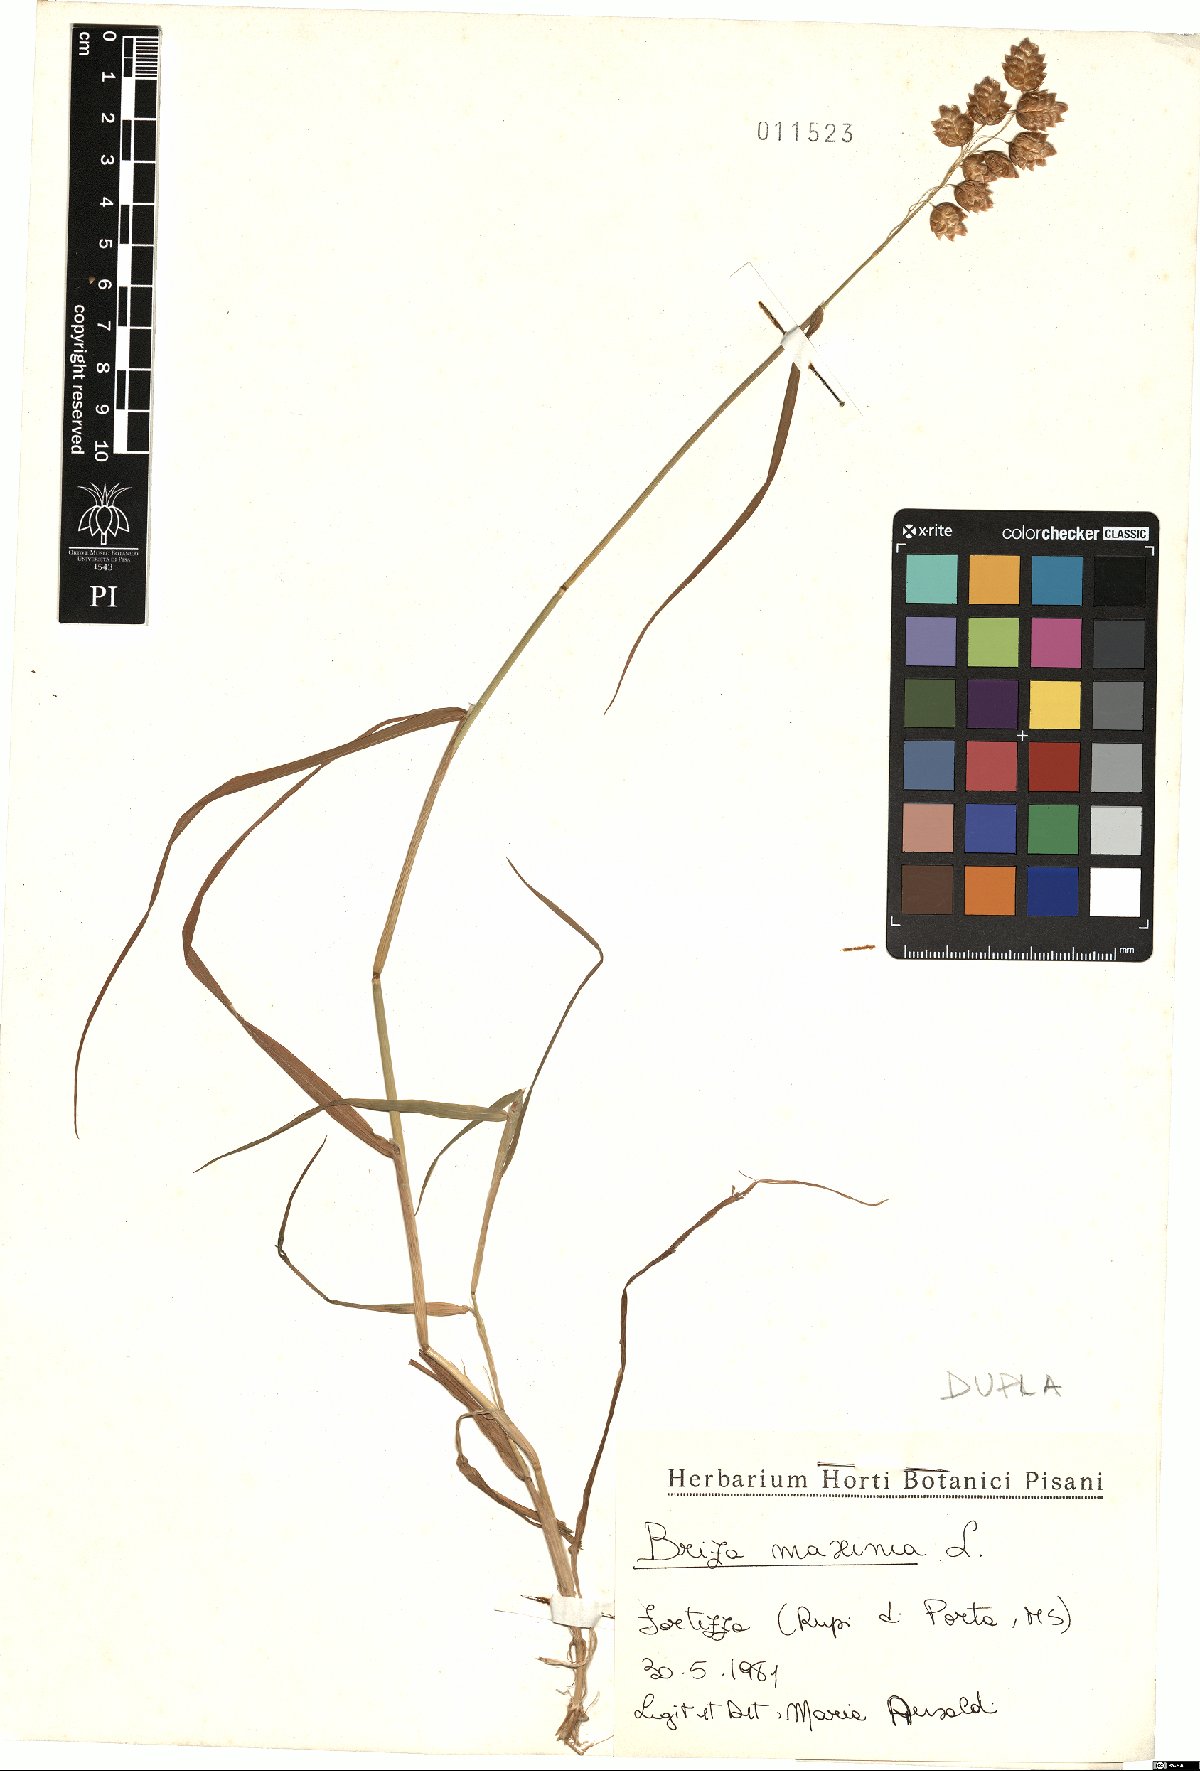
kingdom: Plantae
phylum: Tracheophyta
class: Liliopsida
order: Poales
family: Poaceae
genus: Briza
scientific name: Briza maxima
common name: Big quakinggrass
